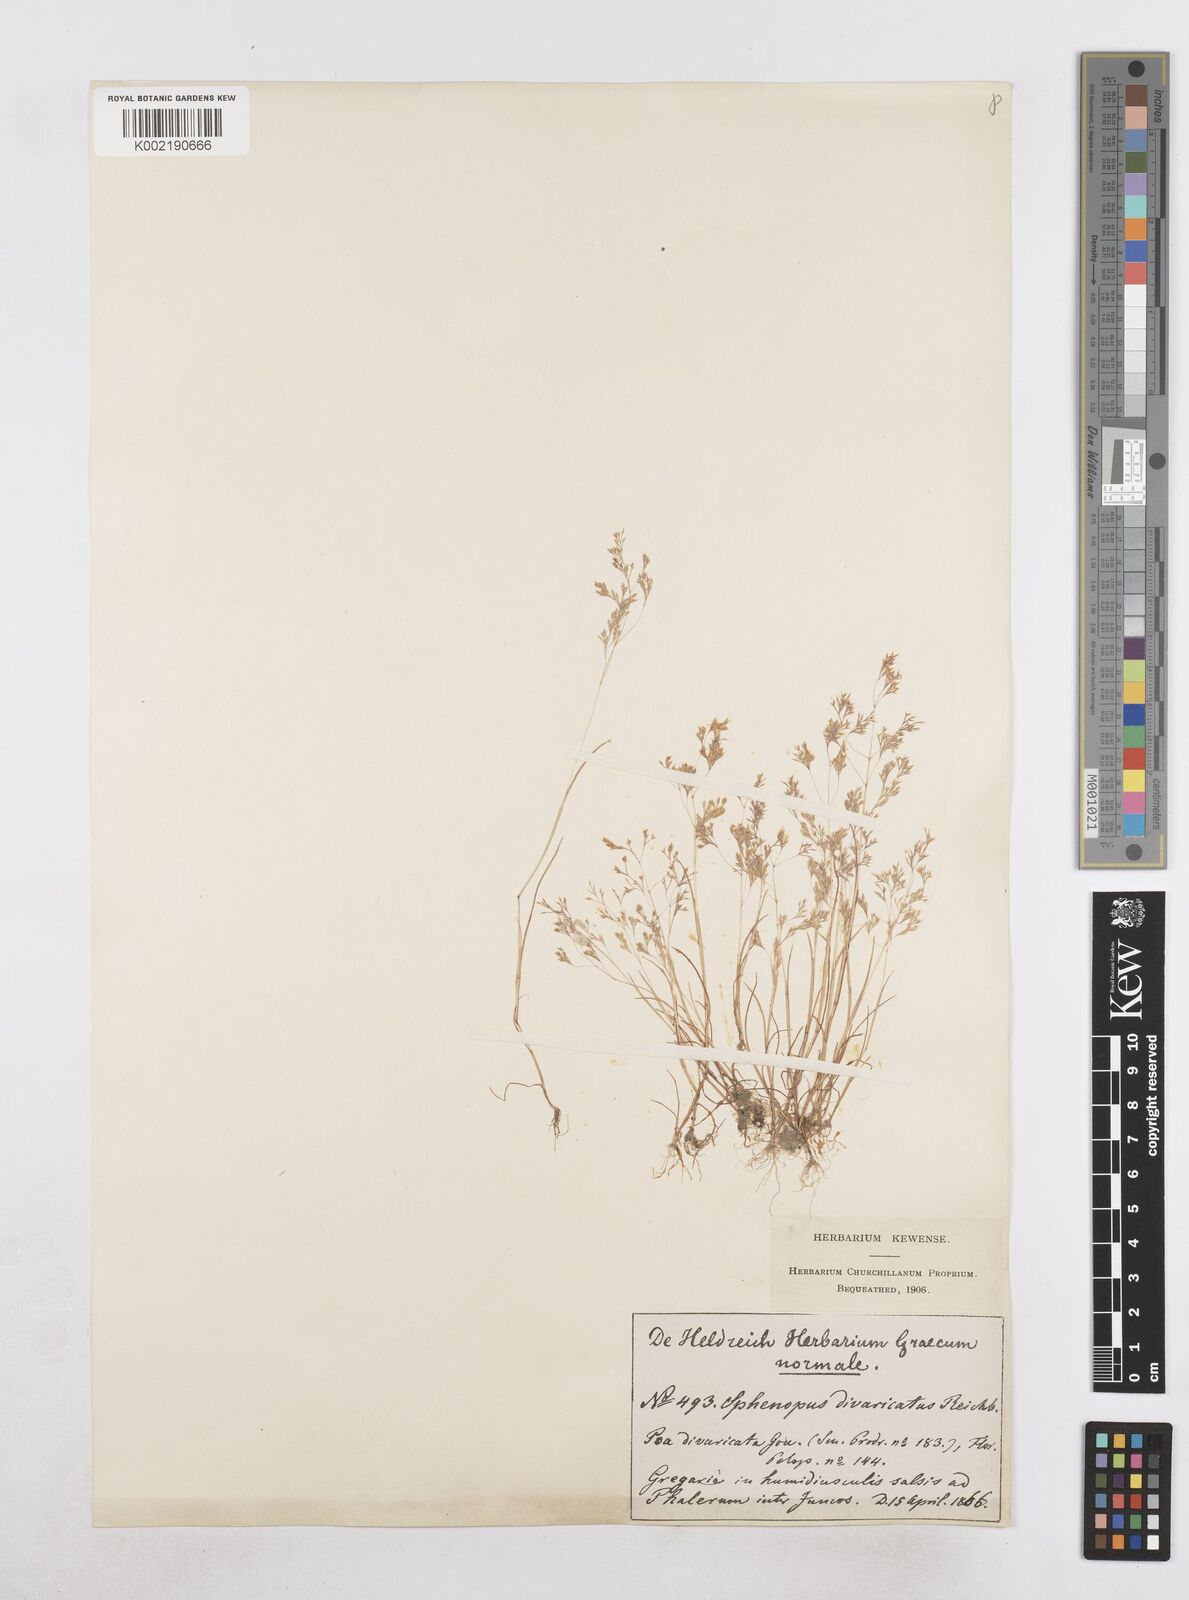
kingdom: Plantae
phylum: Tracheophyta
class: Liliopsida
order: Poales
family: Poaceae
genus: Sphenopus
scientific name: Sphenopus divaricatus
